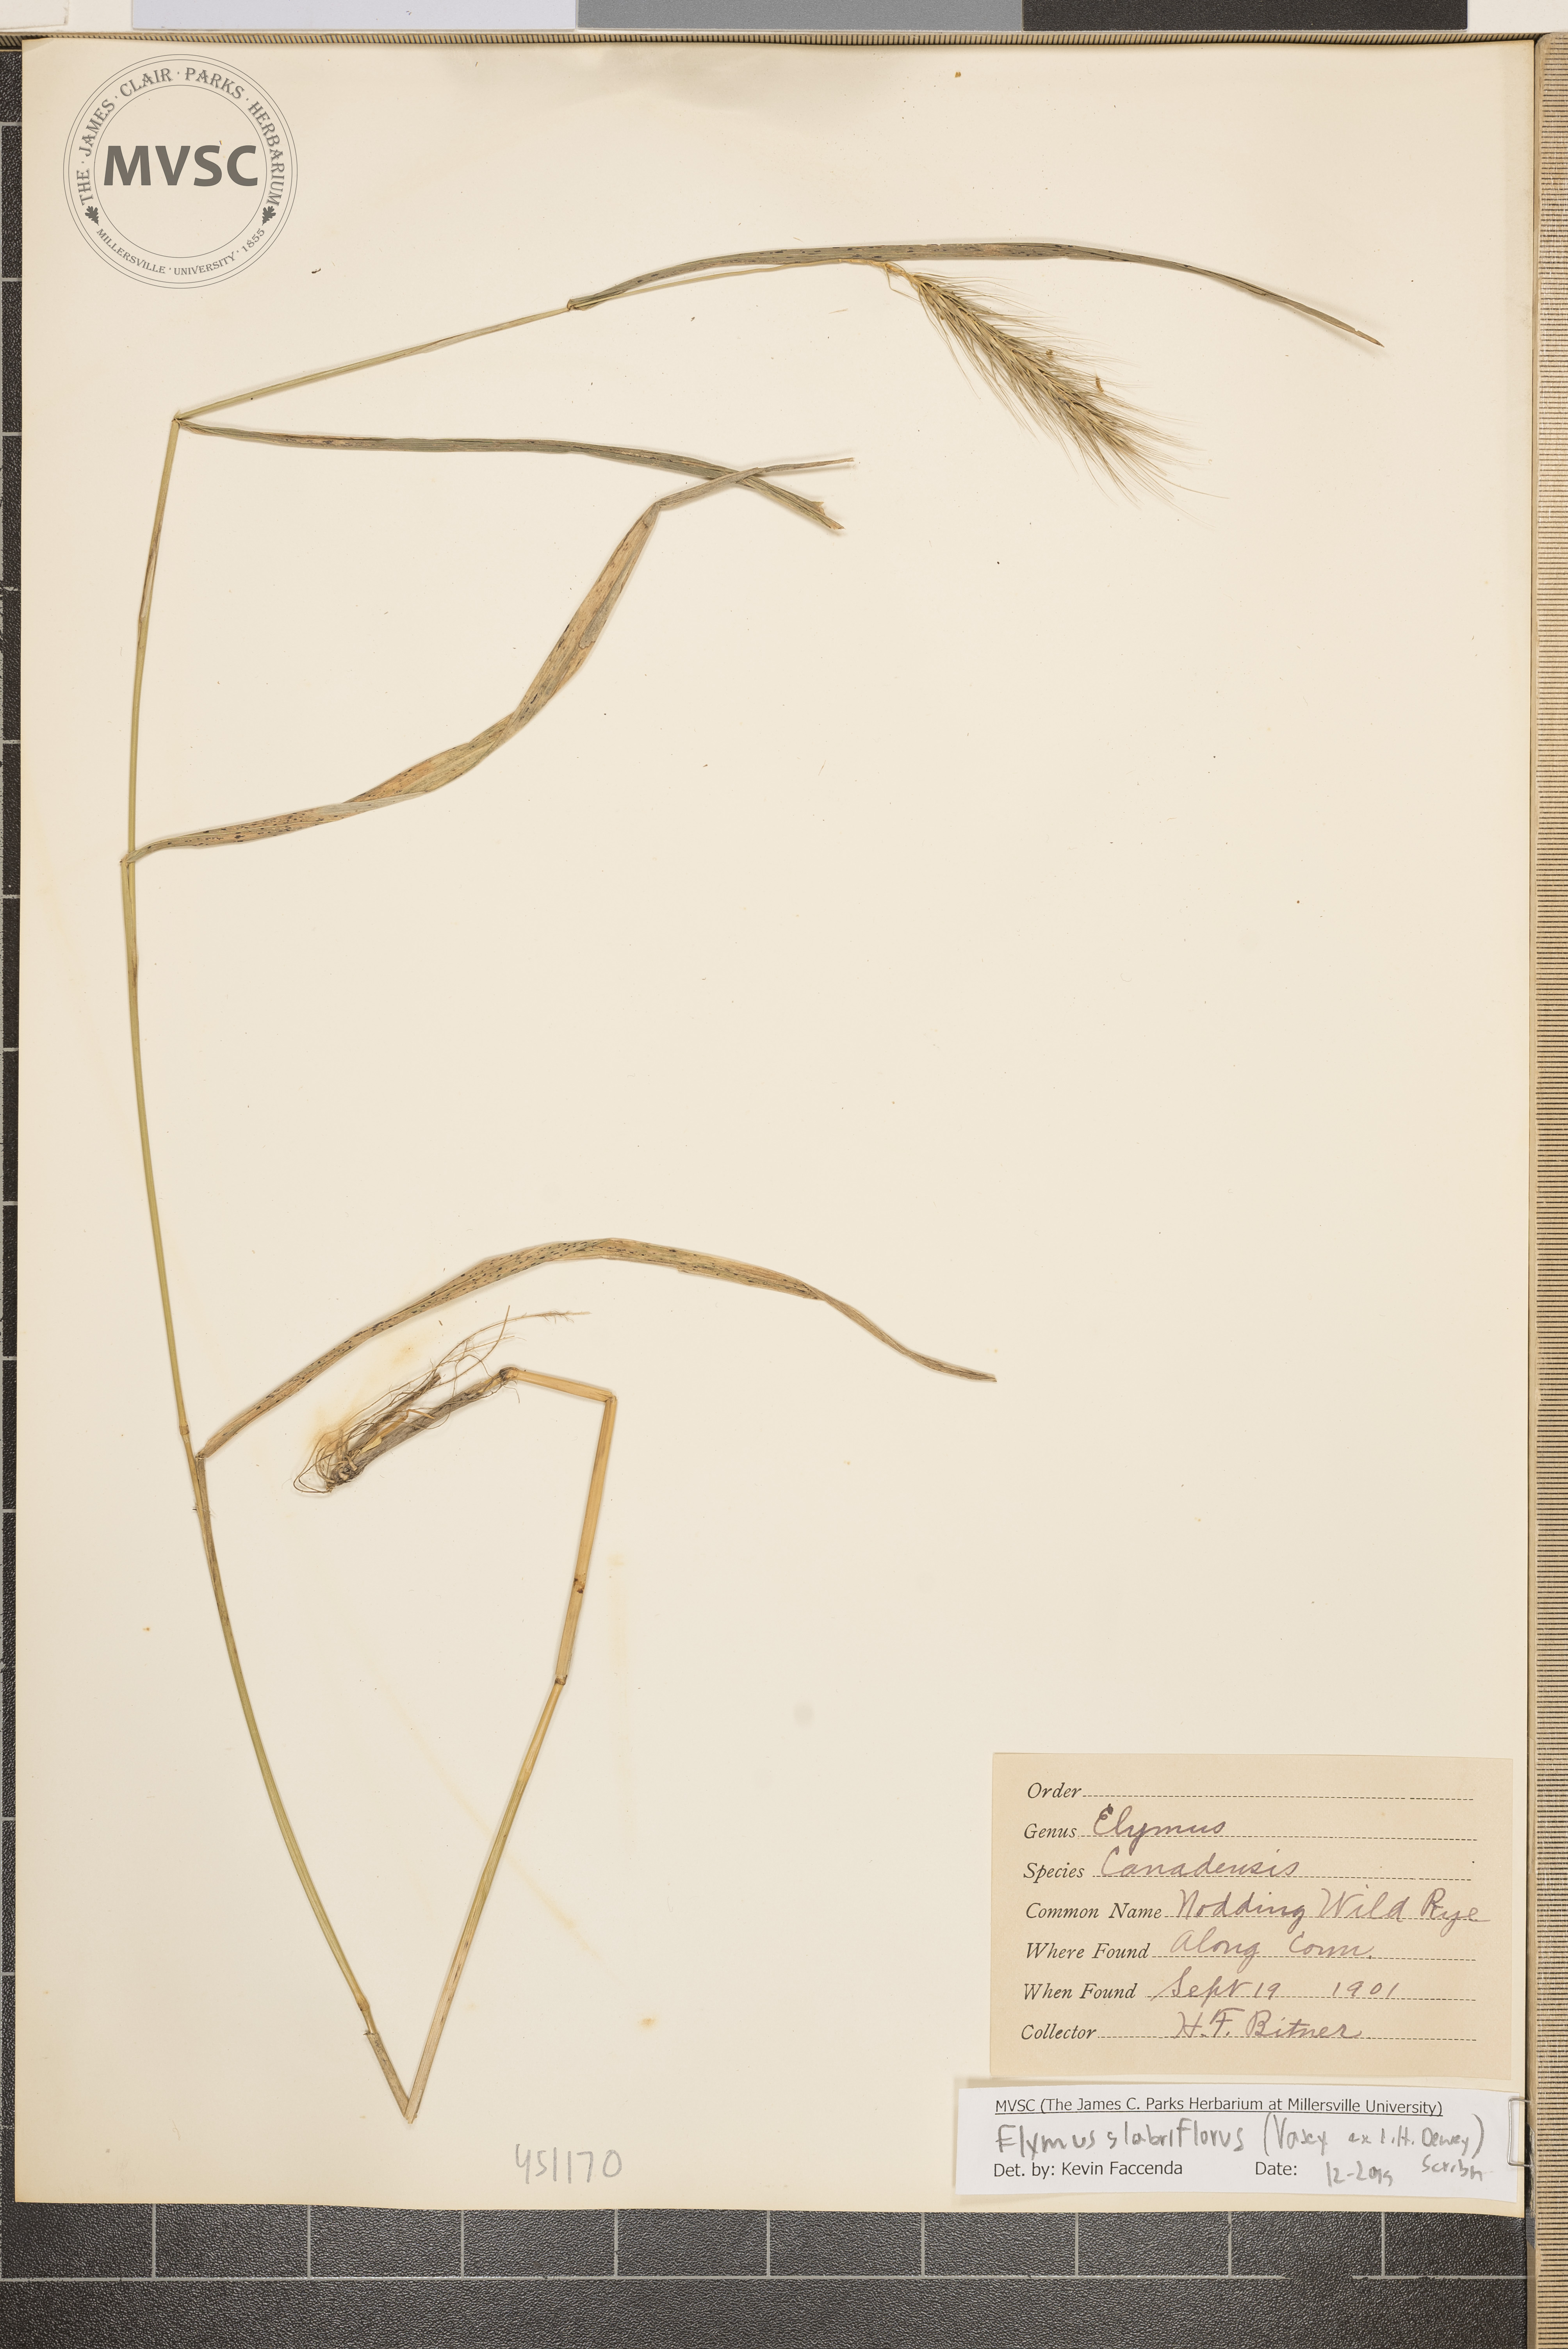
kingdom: Plantae
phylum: Tracheophyta
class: Liliopsida
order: Poales
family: Poaceae
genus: Elymus
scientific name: Elymus virginicus
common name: Common eastern wildrye
